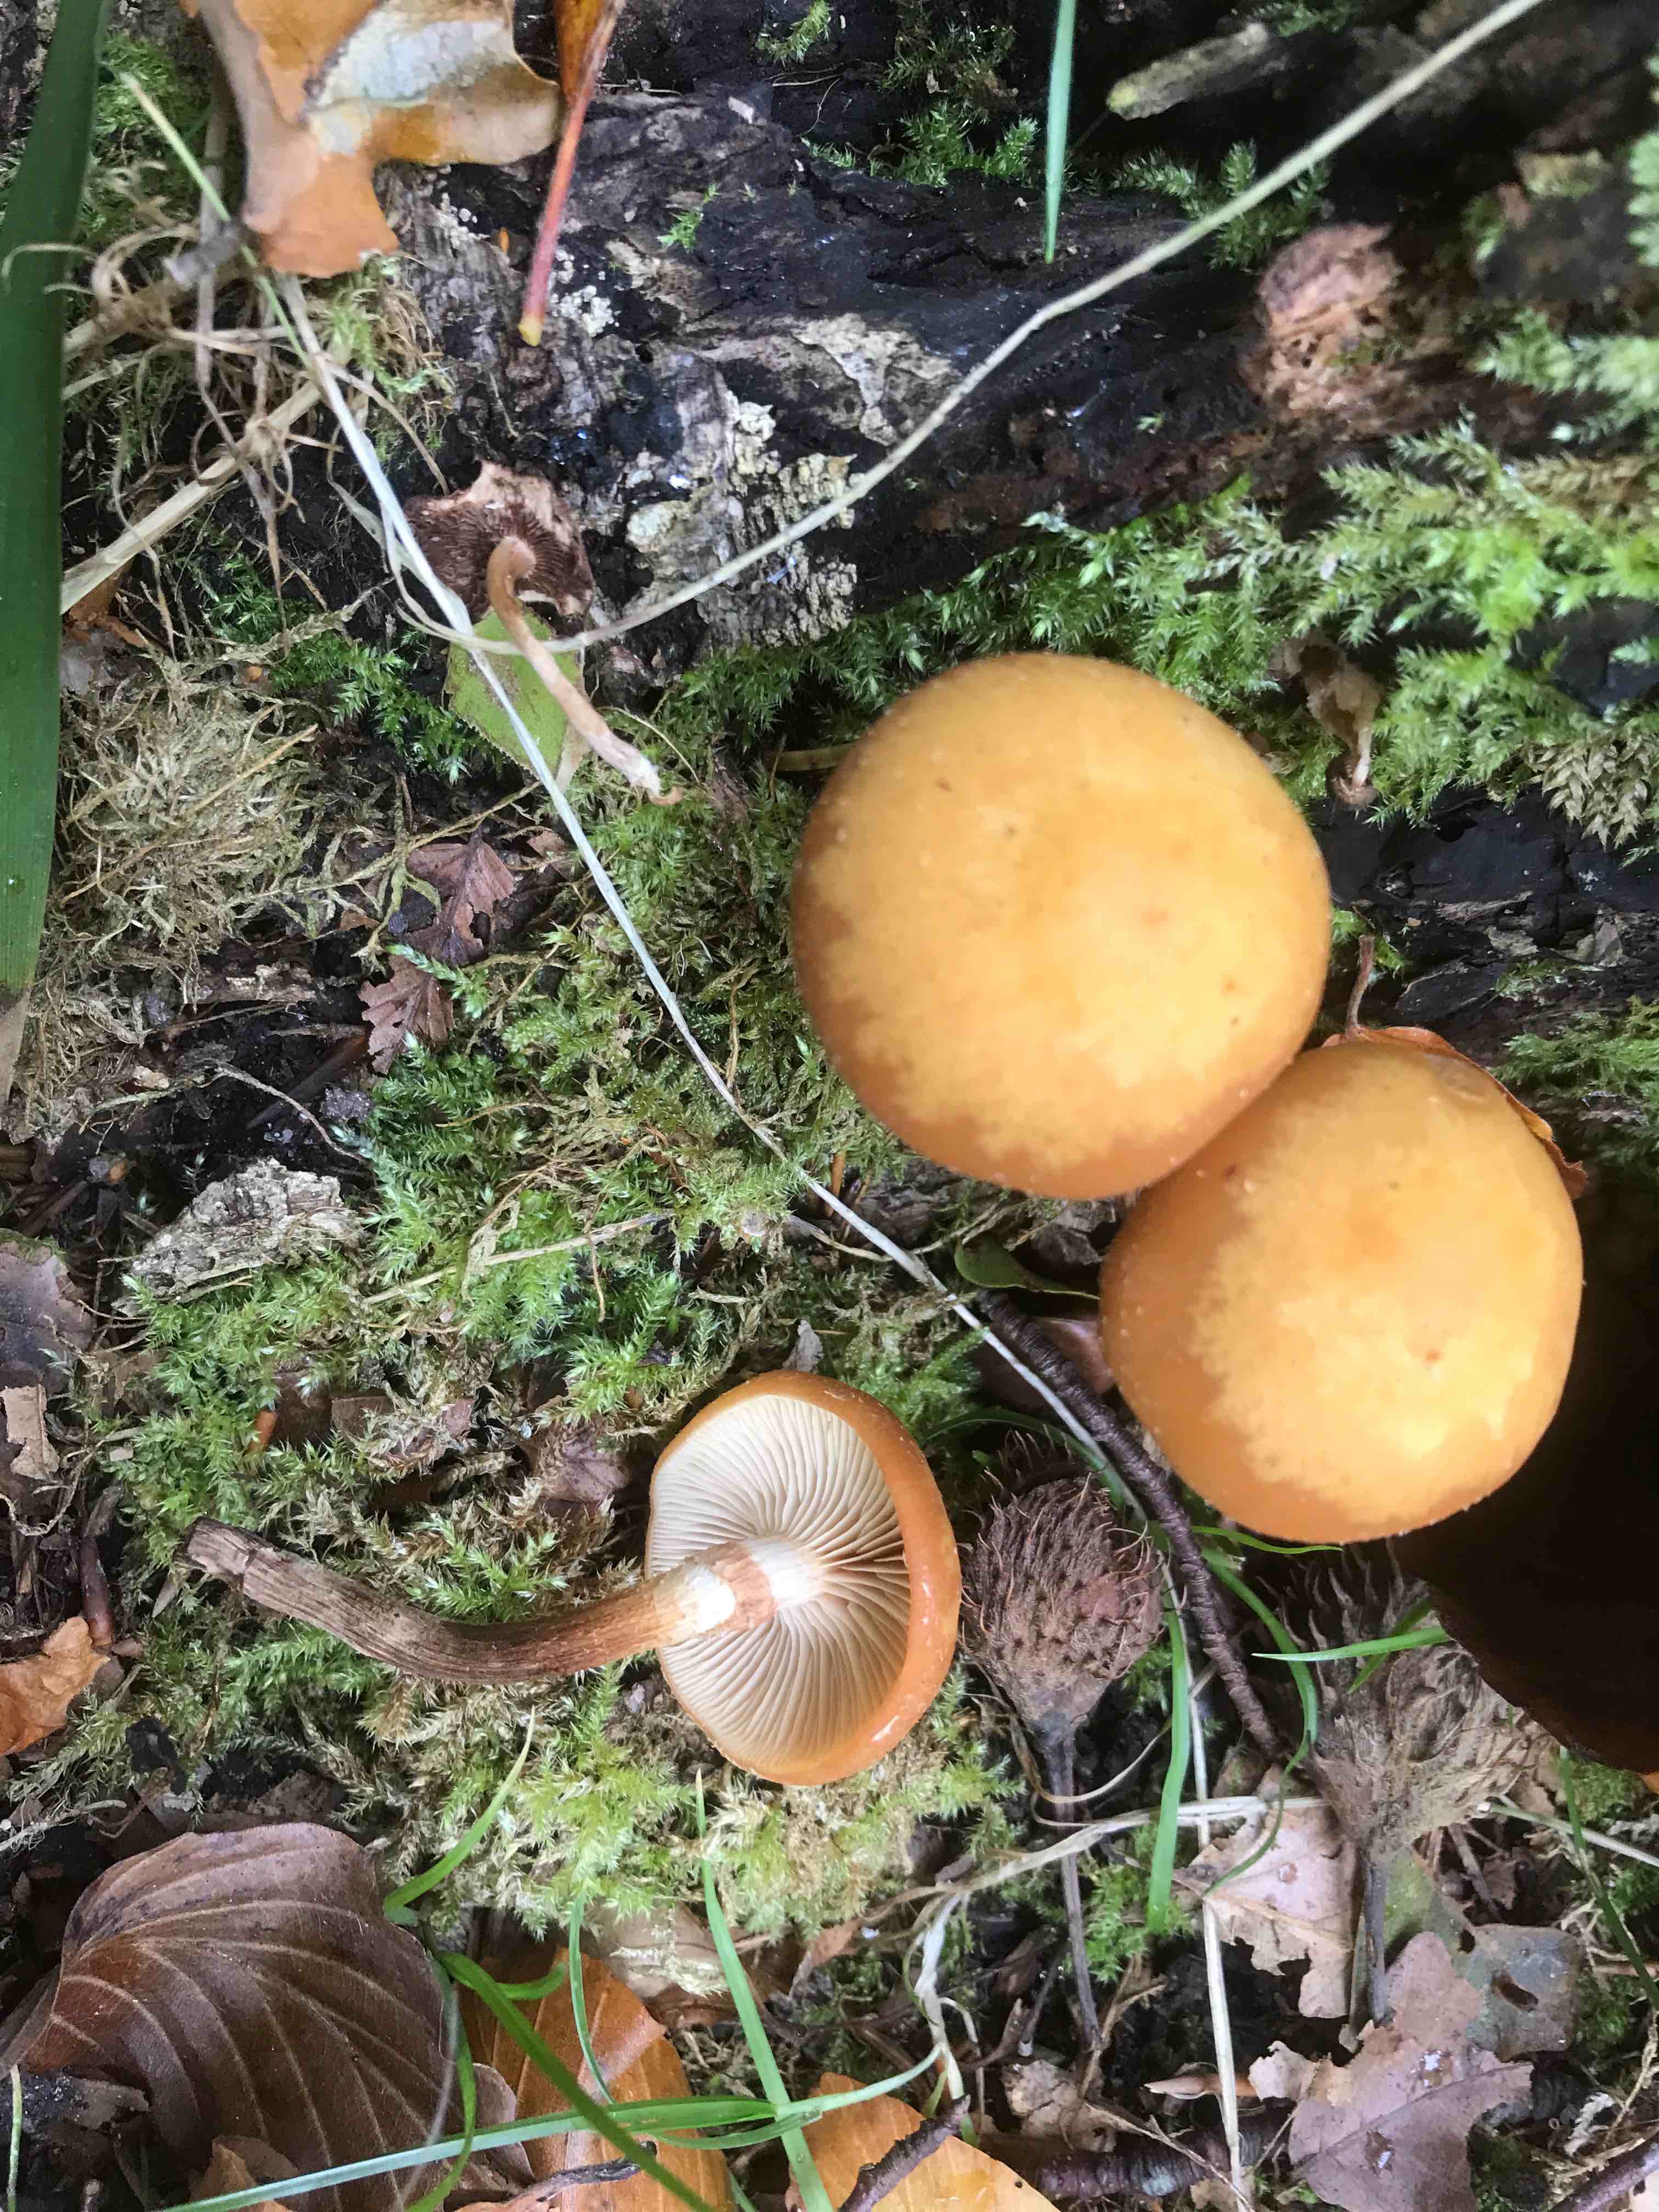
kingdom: Fungi
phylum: Basidiomycota
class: Agaricomycetes
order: Agaricales
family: Strophariaceae
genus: Kuehneromyces
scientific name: Kuehneromyces mutabilis
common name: foranderlig skælhat
